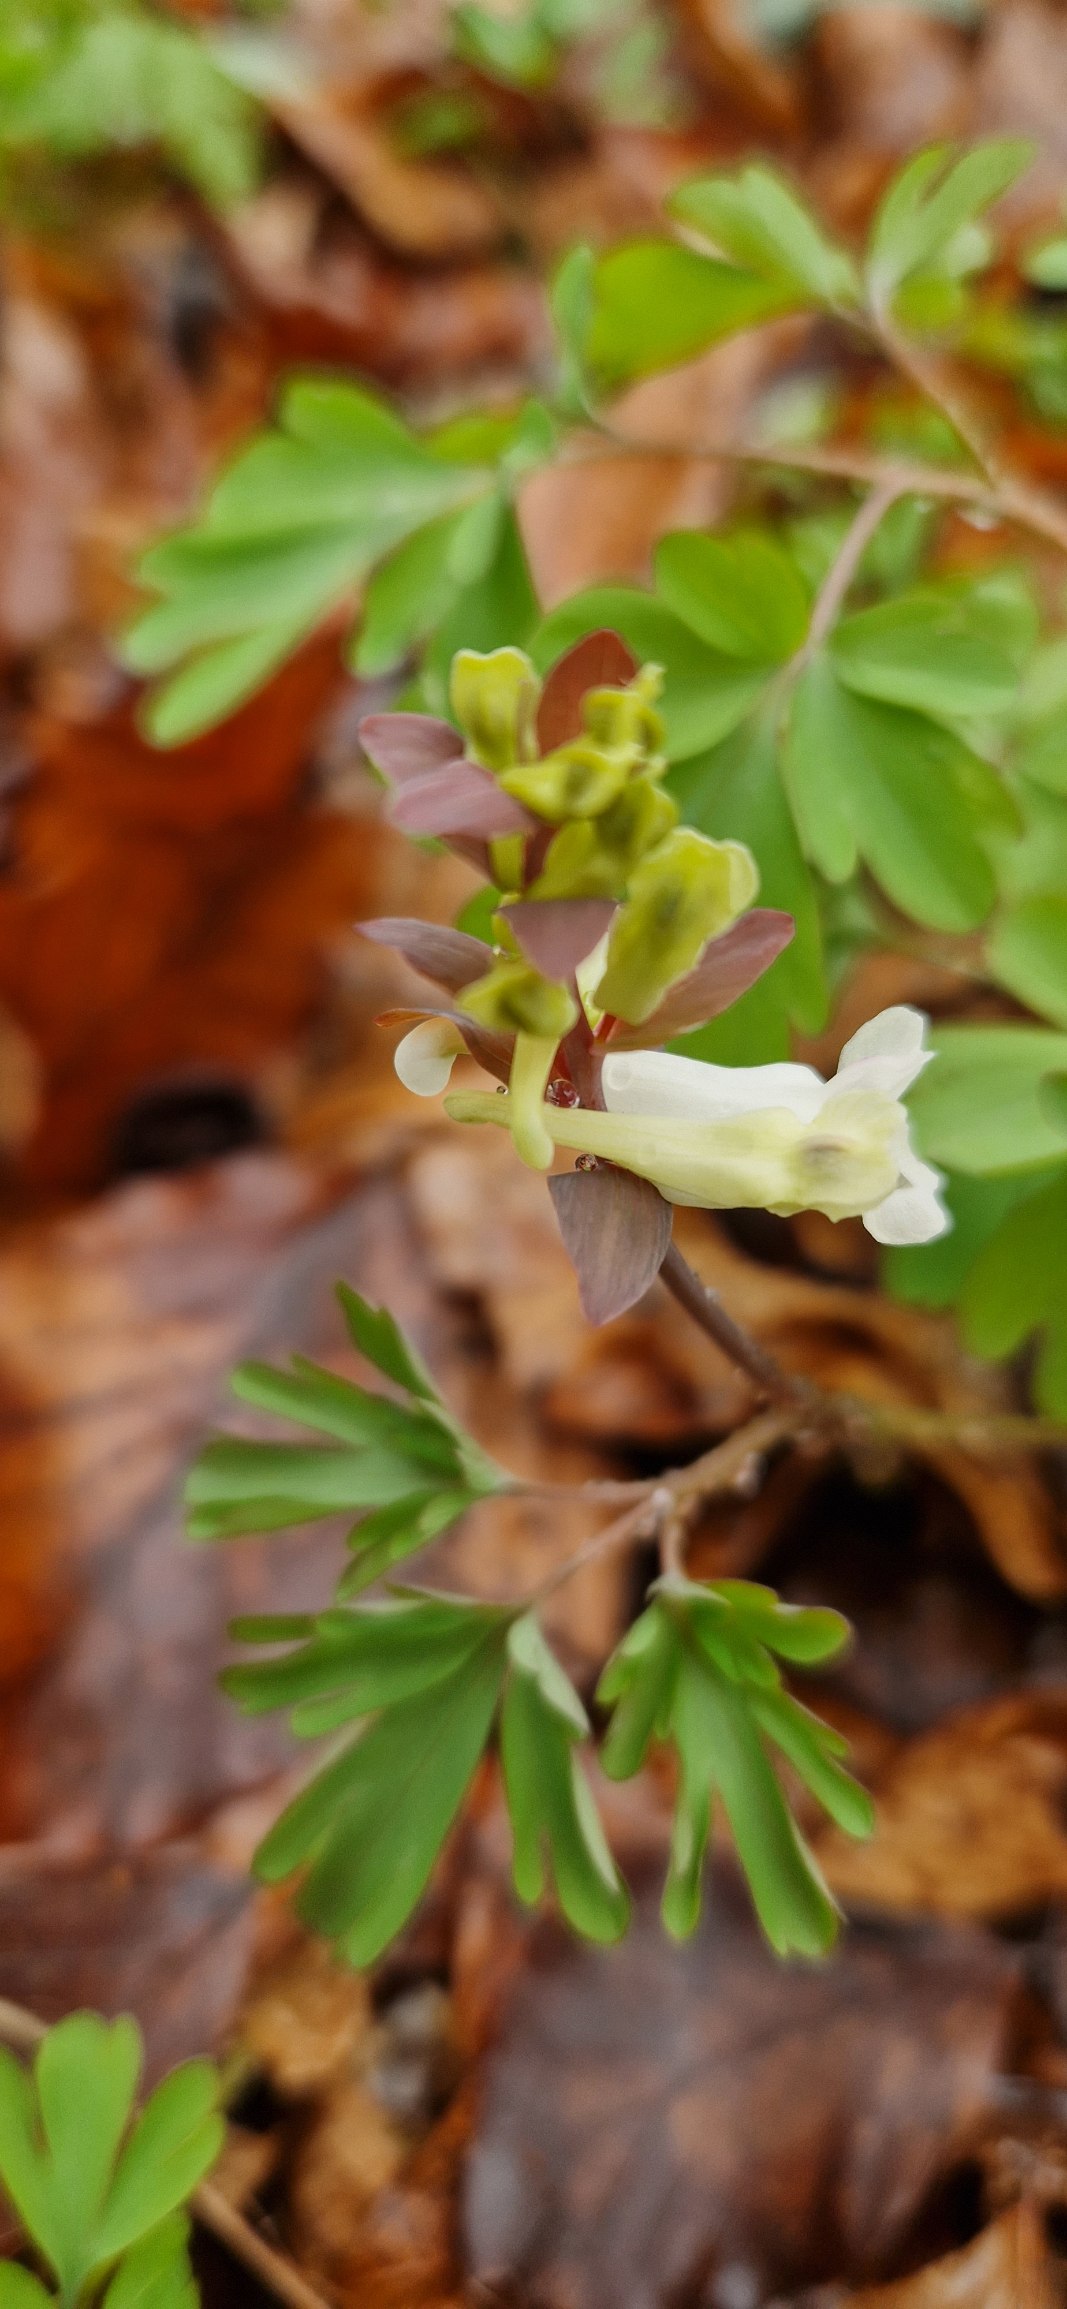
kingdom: Plantae
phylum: Tracheophyta
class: Magnoliopsida
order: Ranunculales
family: Papaveraceae
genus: Corydalis
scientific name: Corydalis cava
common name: Hulrodet lærkespore
